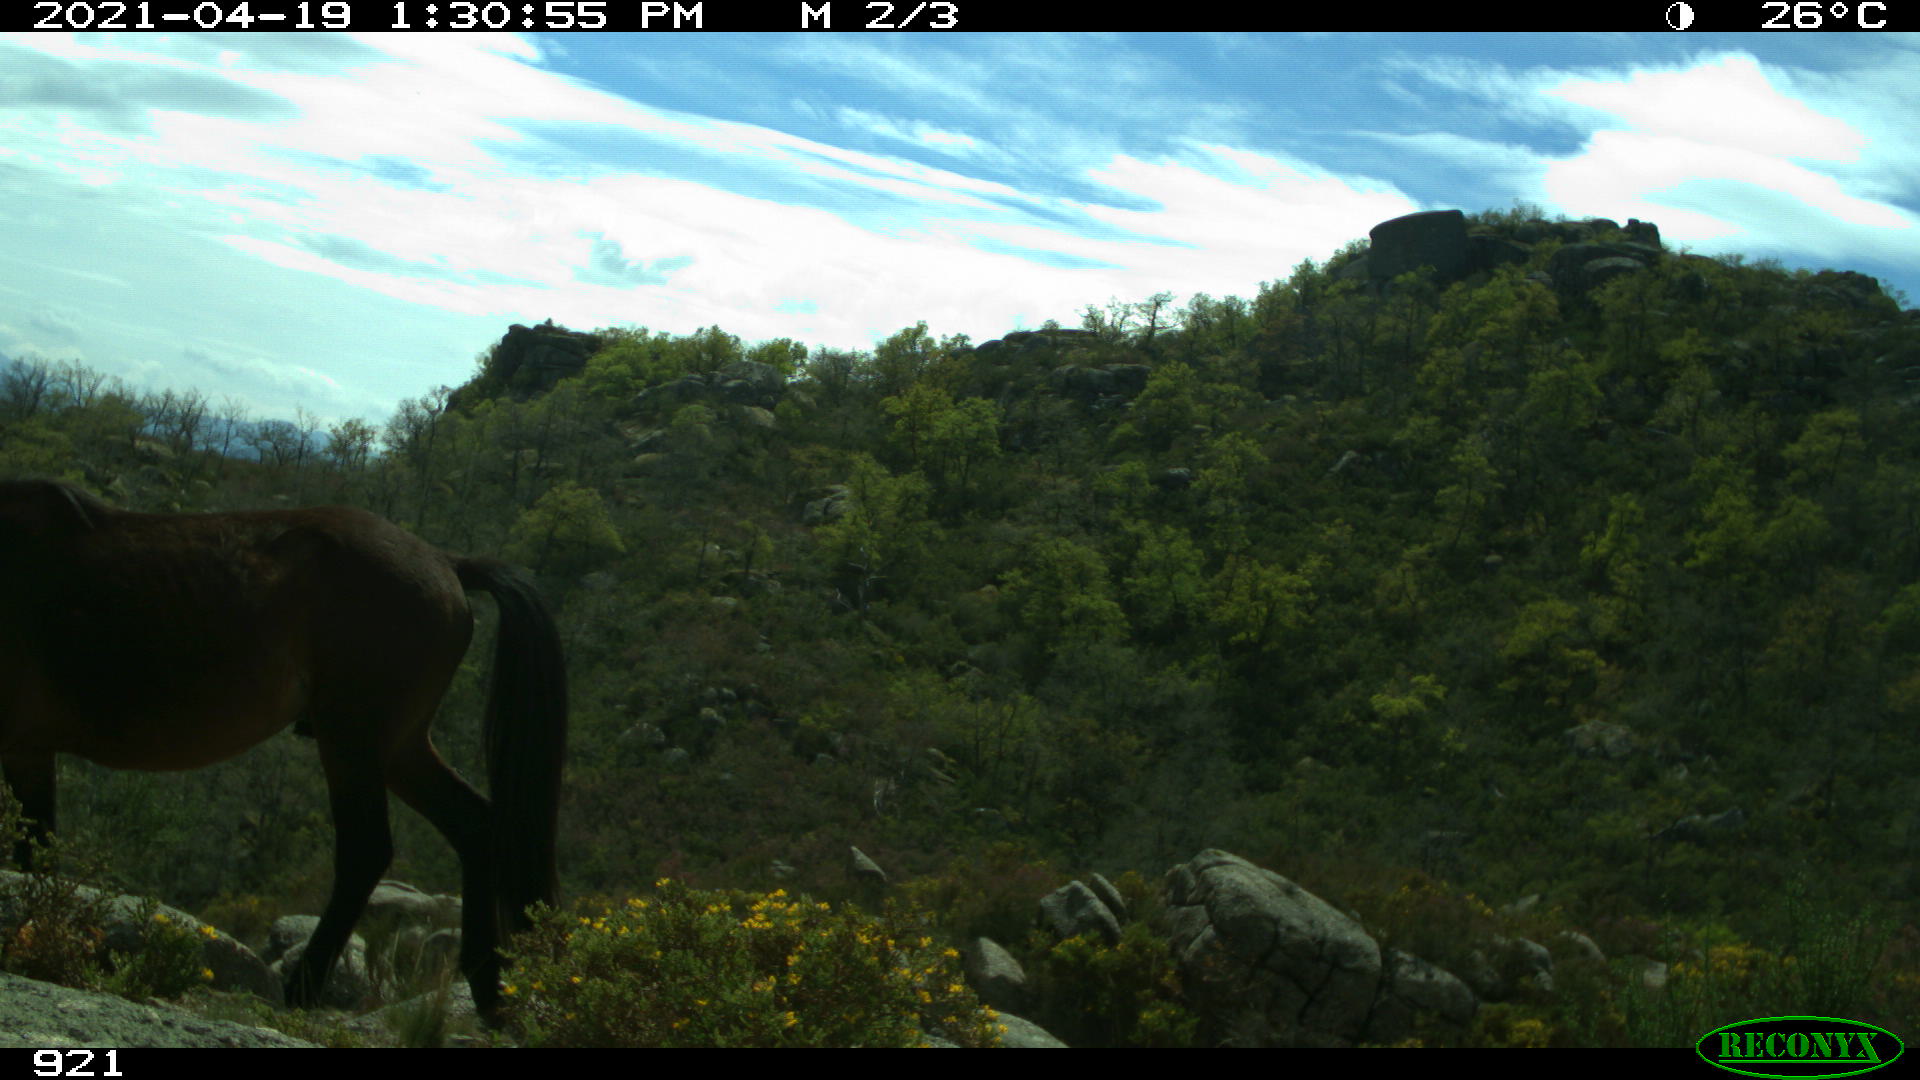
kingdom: Animalia
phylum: Chordata
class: Mammalia
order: Perissodactyla
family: Equidae
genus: Equus
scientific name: Equus caballus
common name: Horse
